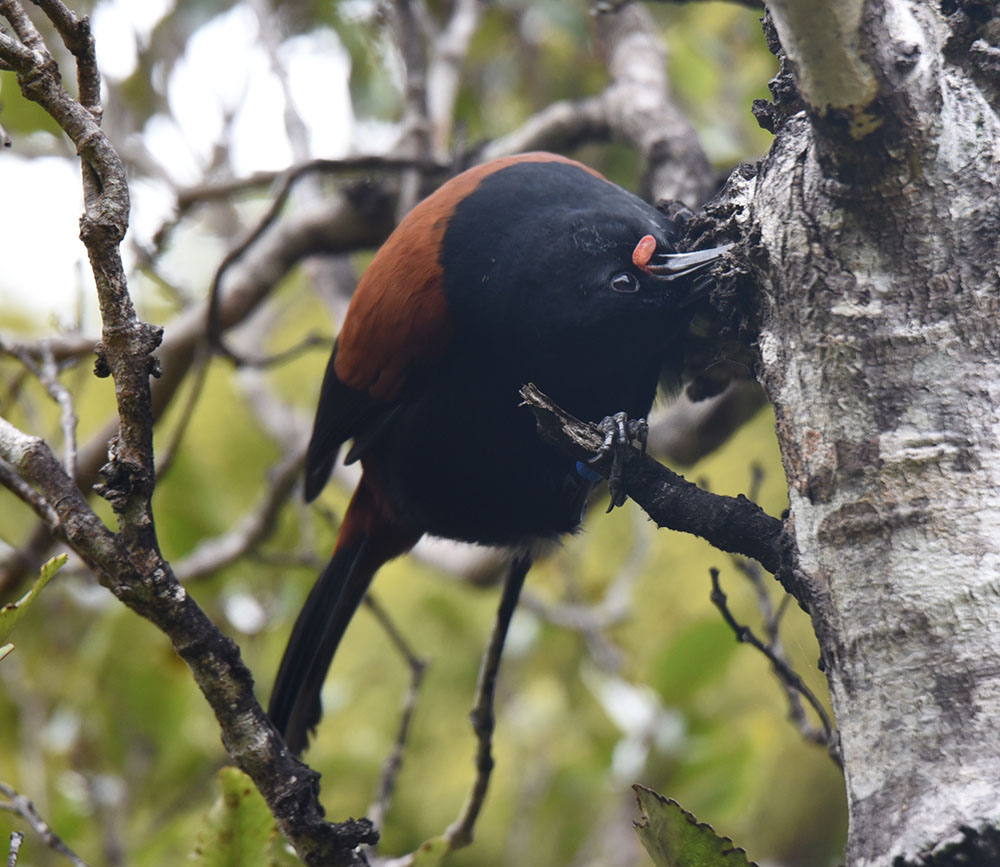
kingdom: Animalia
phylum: Chordata
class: Aves
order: Passeriformes
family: Callaeatidae
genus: Philesturnus
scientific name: Philesturnus carunculatus
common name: South island saddleback
